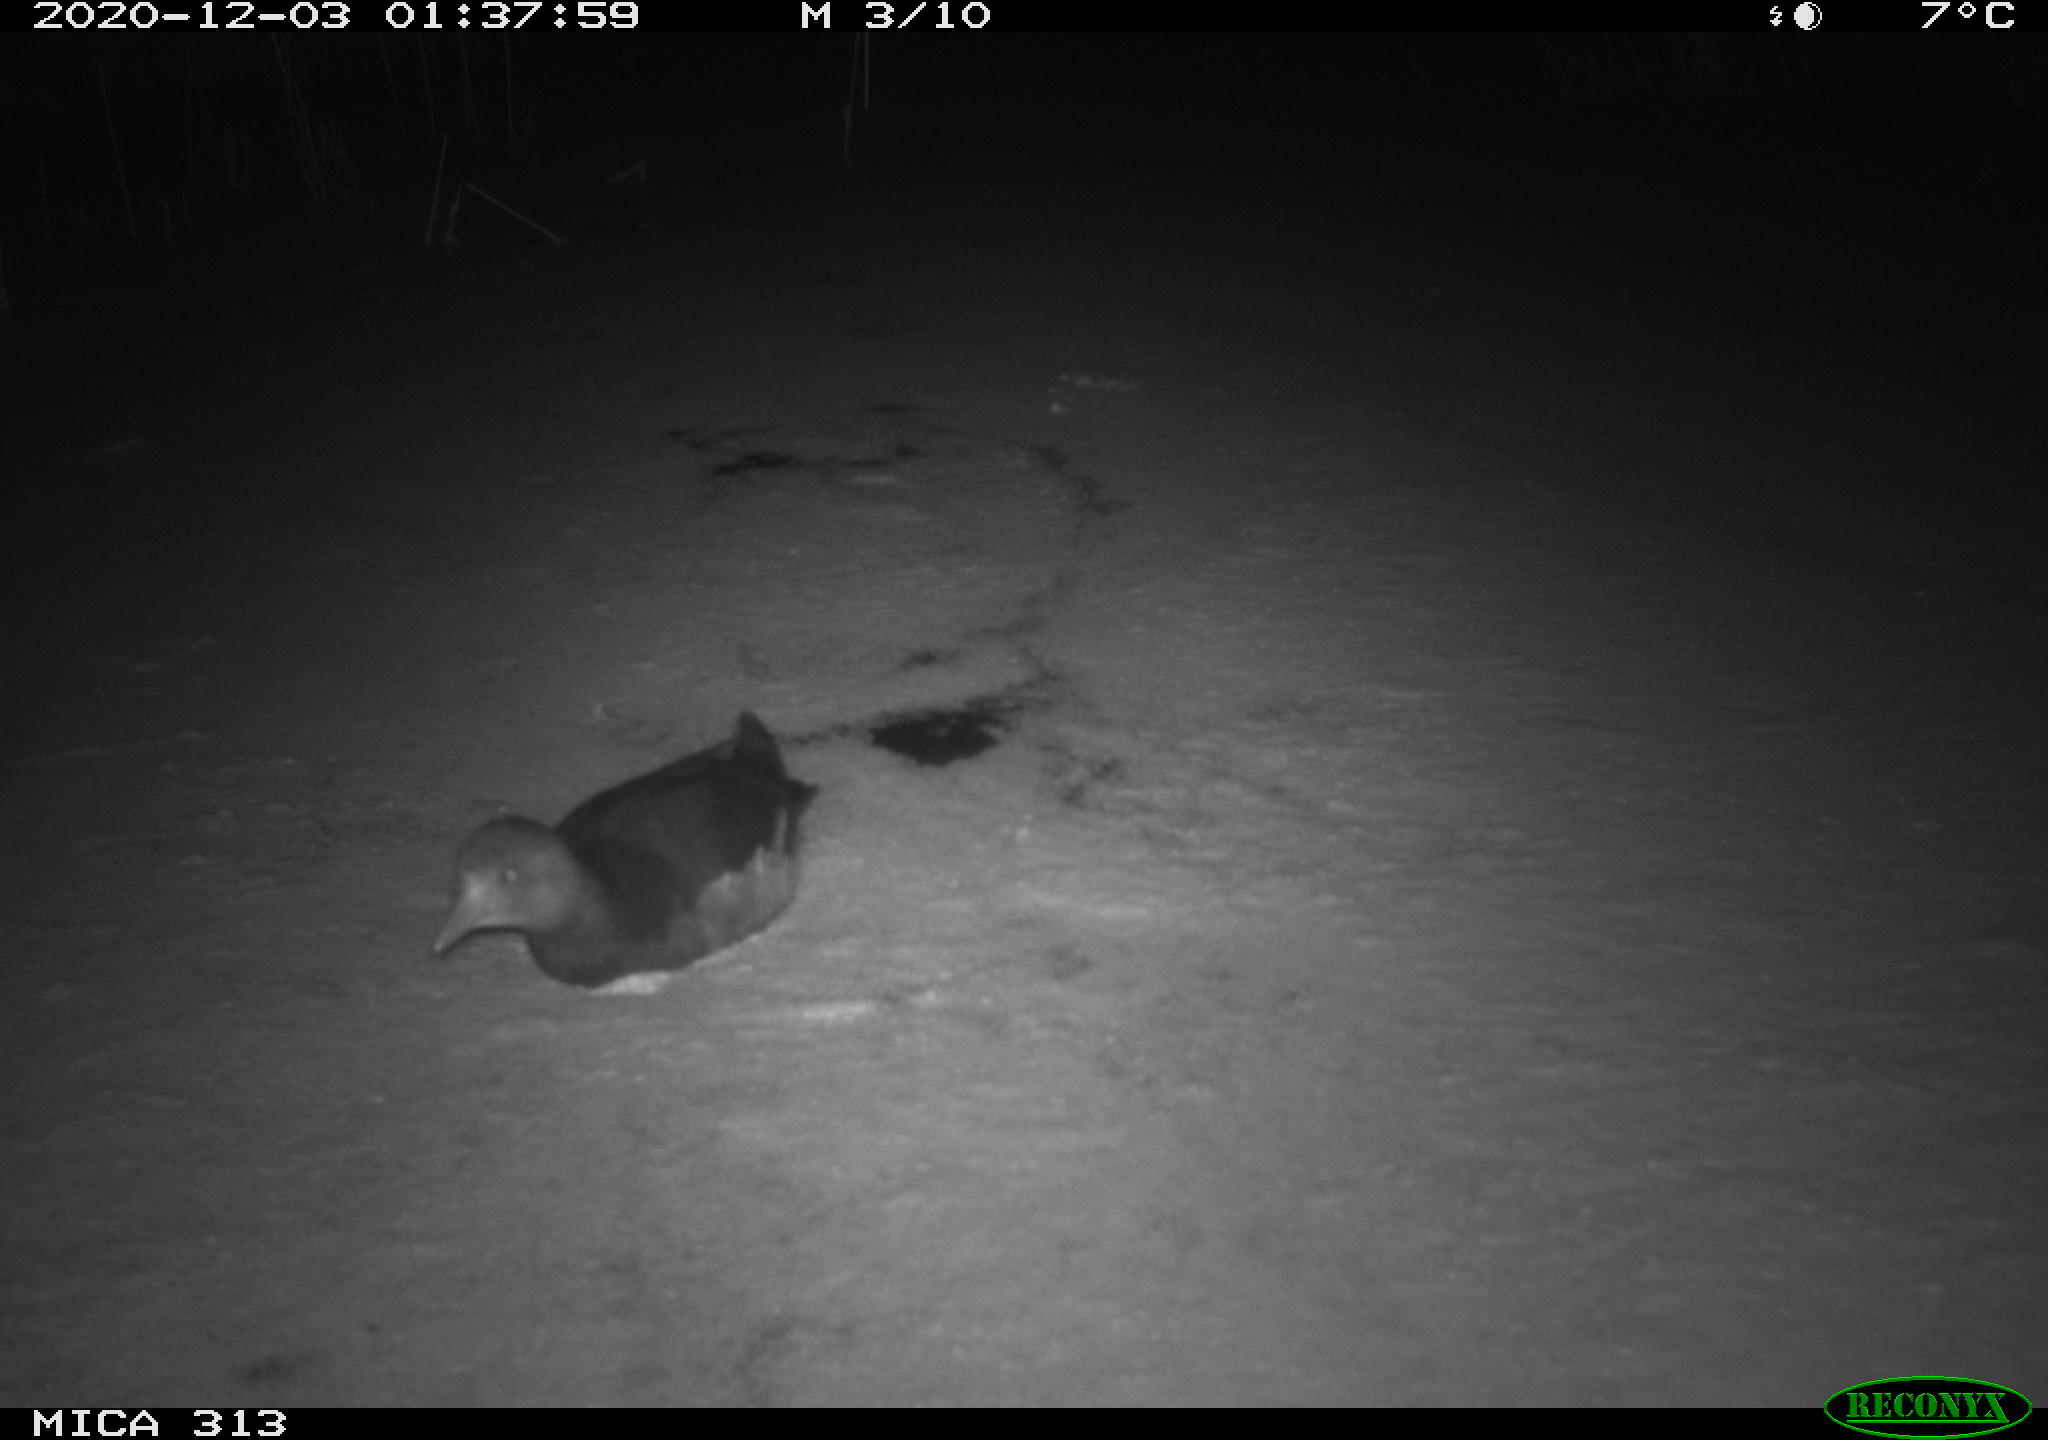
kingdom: Animalia
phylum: Chordata
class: Aves
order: Gruiformes
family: Rallidae
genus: Gallinula
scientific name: Gallinula chloropus
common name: Common moorhen
